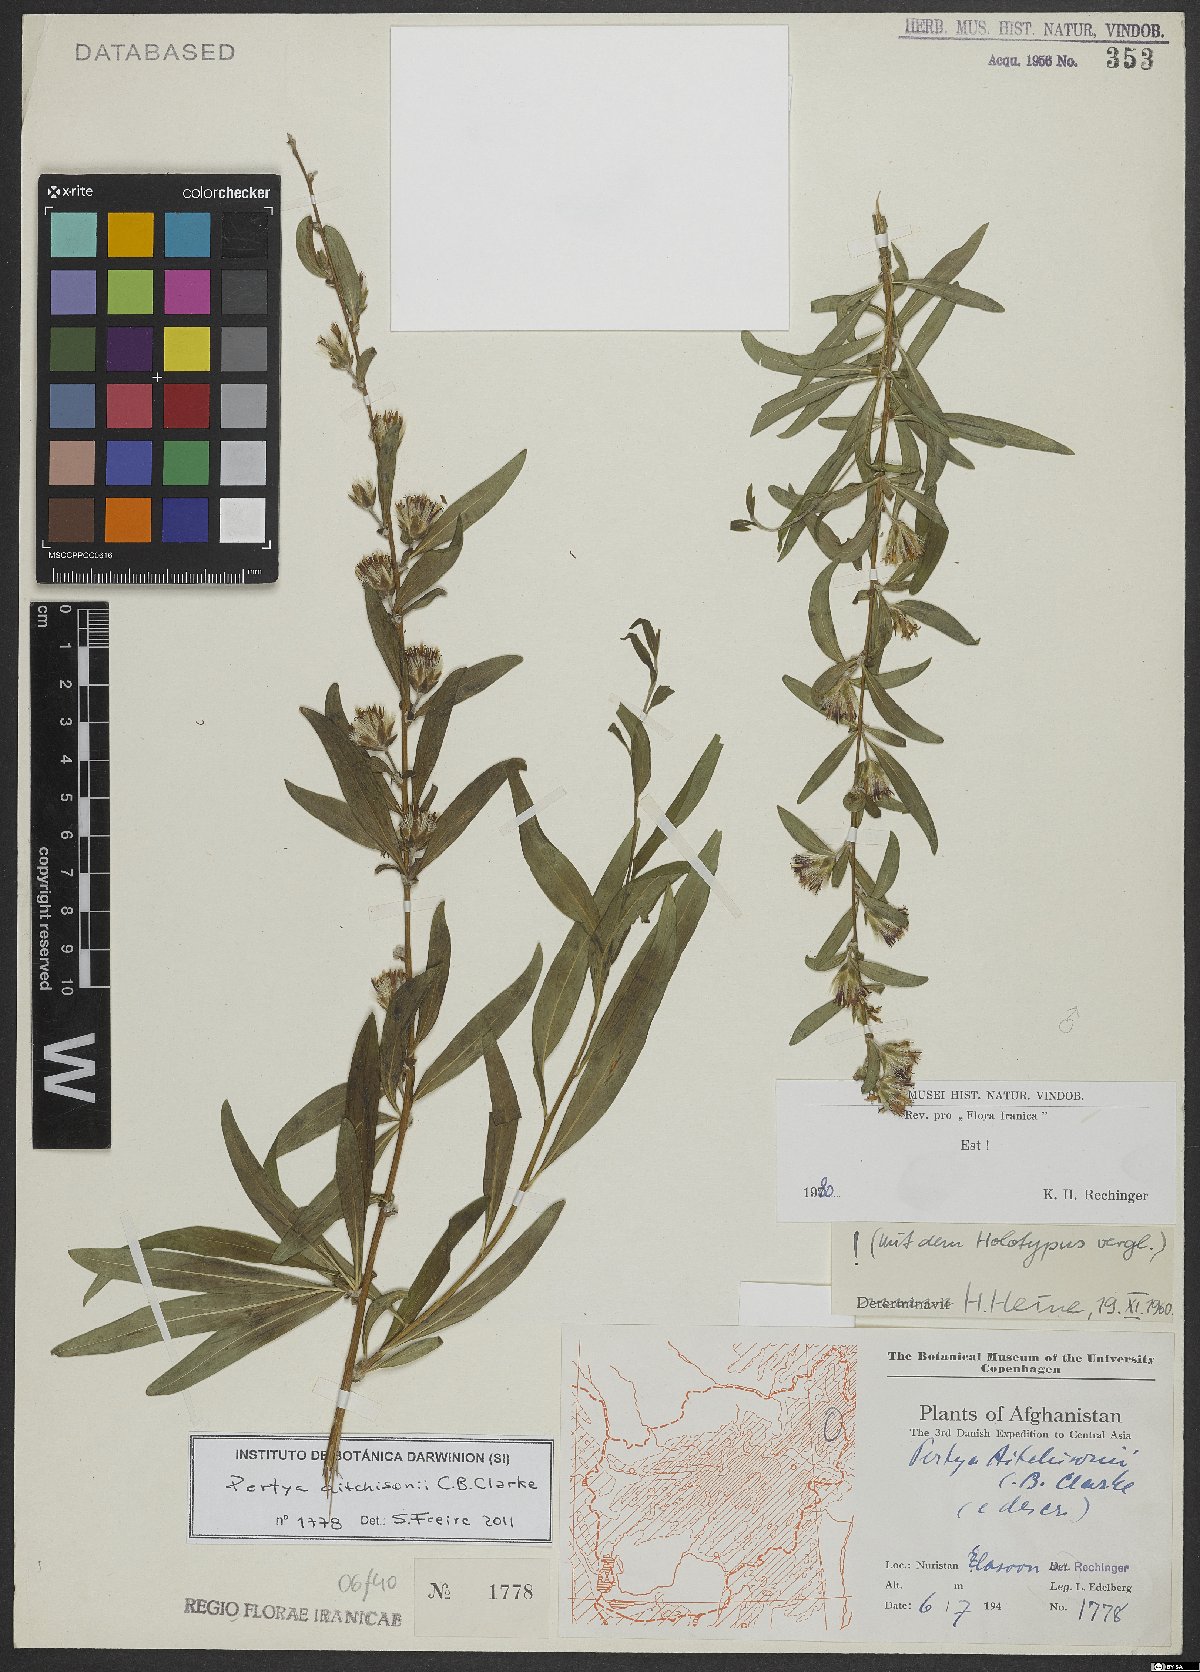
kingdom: Plantae
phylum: Tracheophyta
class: Magnoliopsida
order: Asterales
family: Asteraceae
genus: Pertya
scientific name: Pertya aitchisonii
